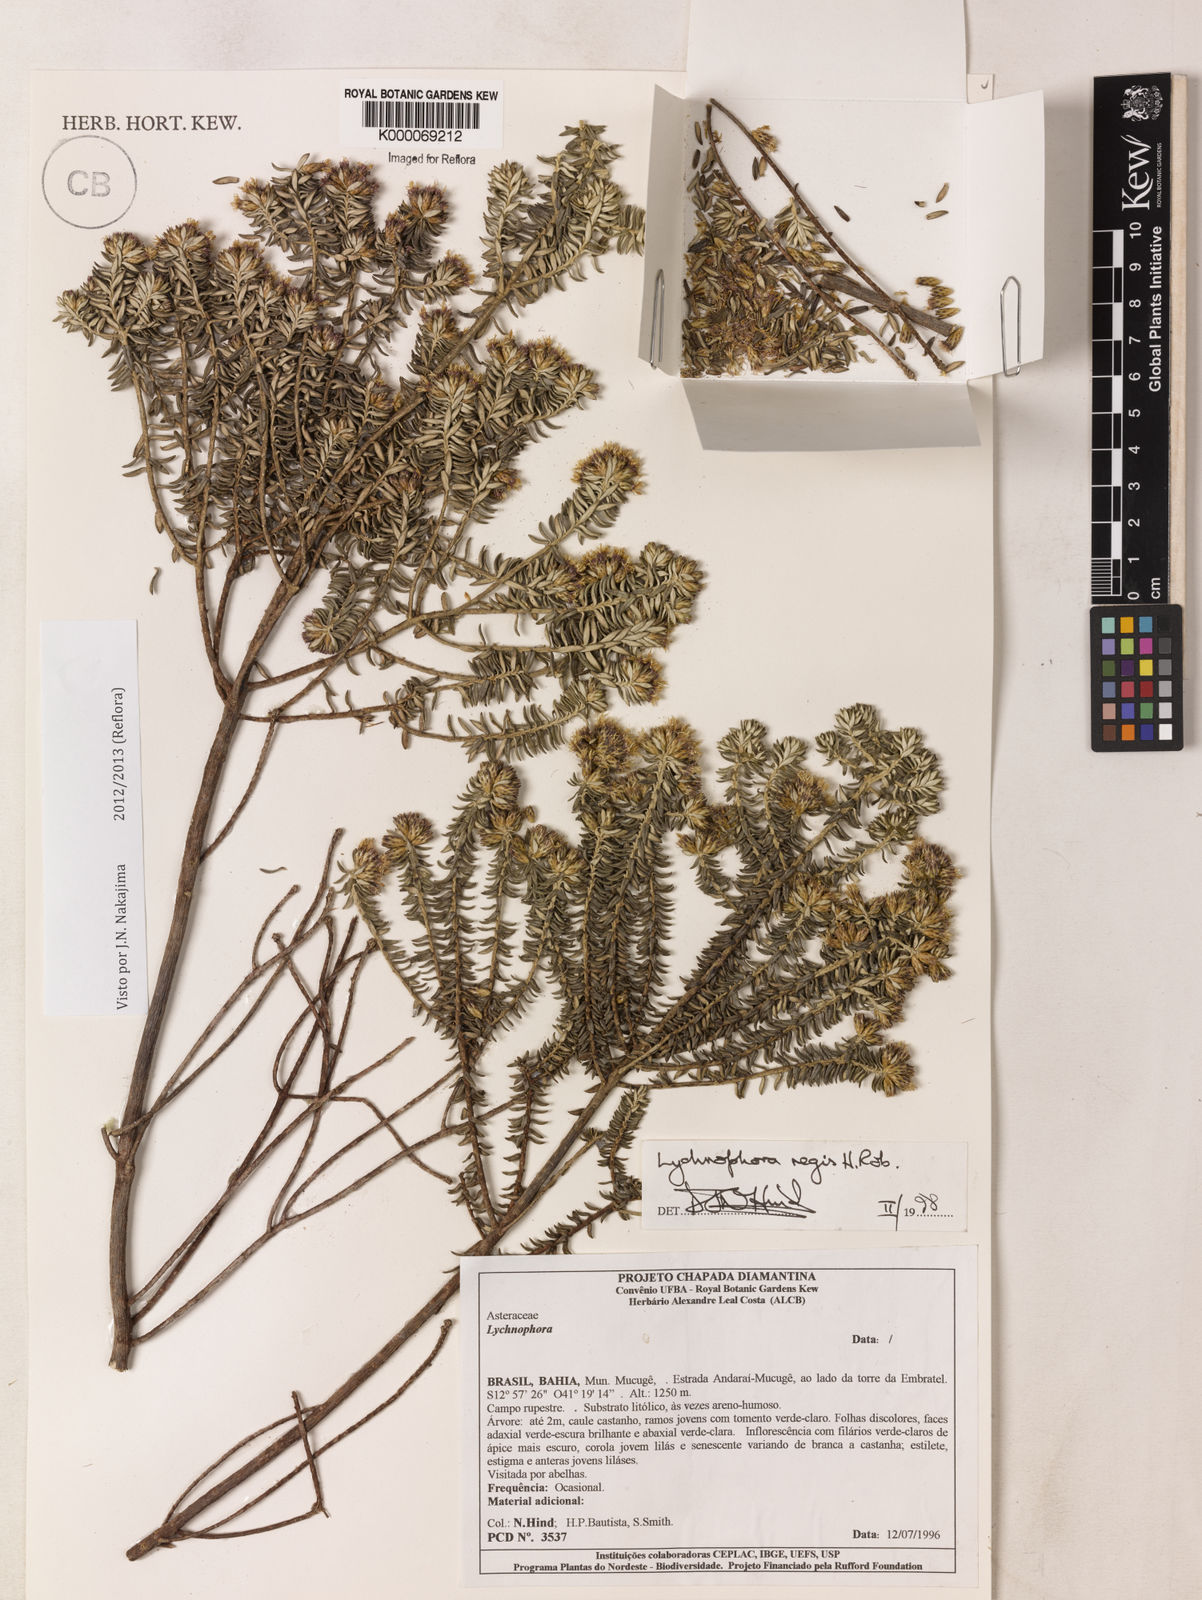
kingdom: Plantae
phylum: Tracheophyta
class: Magnoliopsida
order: Asterales
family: Asteraceae
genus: Lychnophorella
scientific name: Lychnophorella regis
